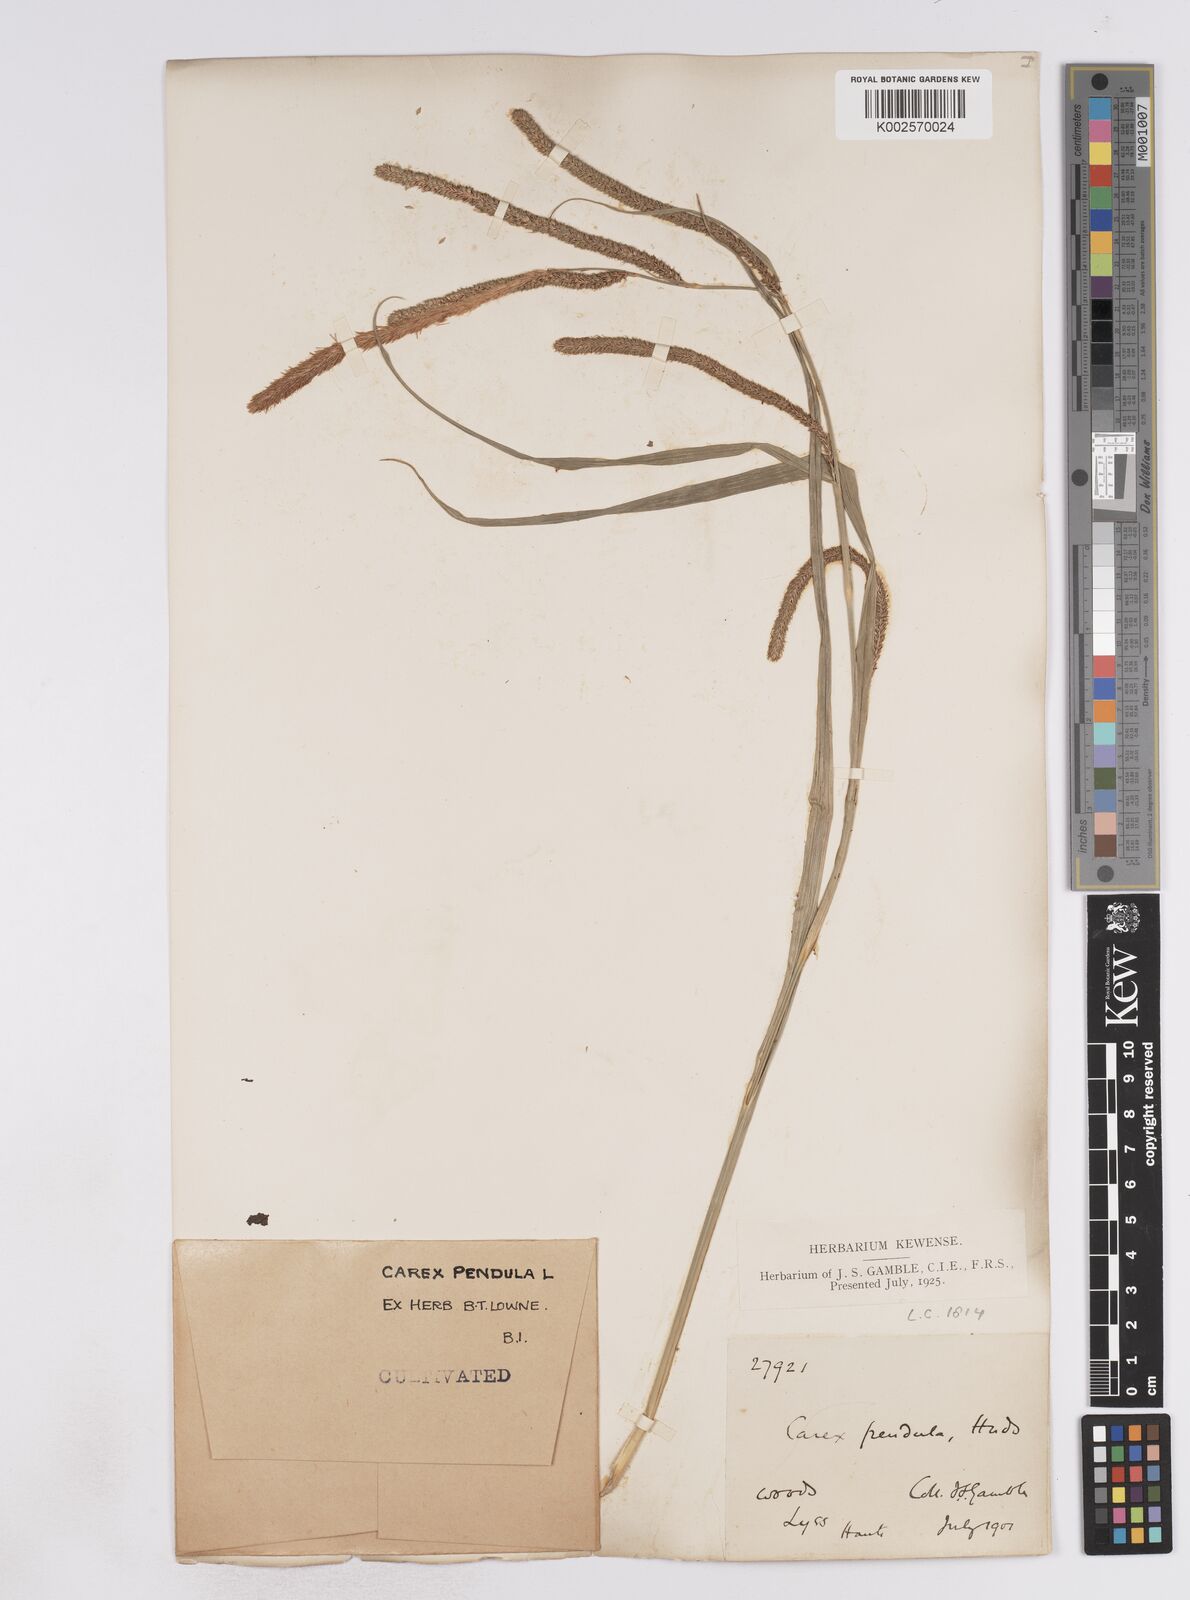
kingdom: Plantae
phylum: Tracheophyta
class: Liliopsida
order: Poales
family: Cyperaceae
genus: Carex
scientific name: Carex pendula
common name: Pendulous sedge
